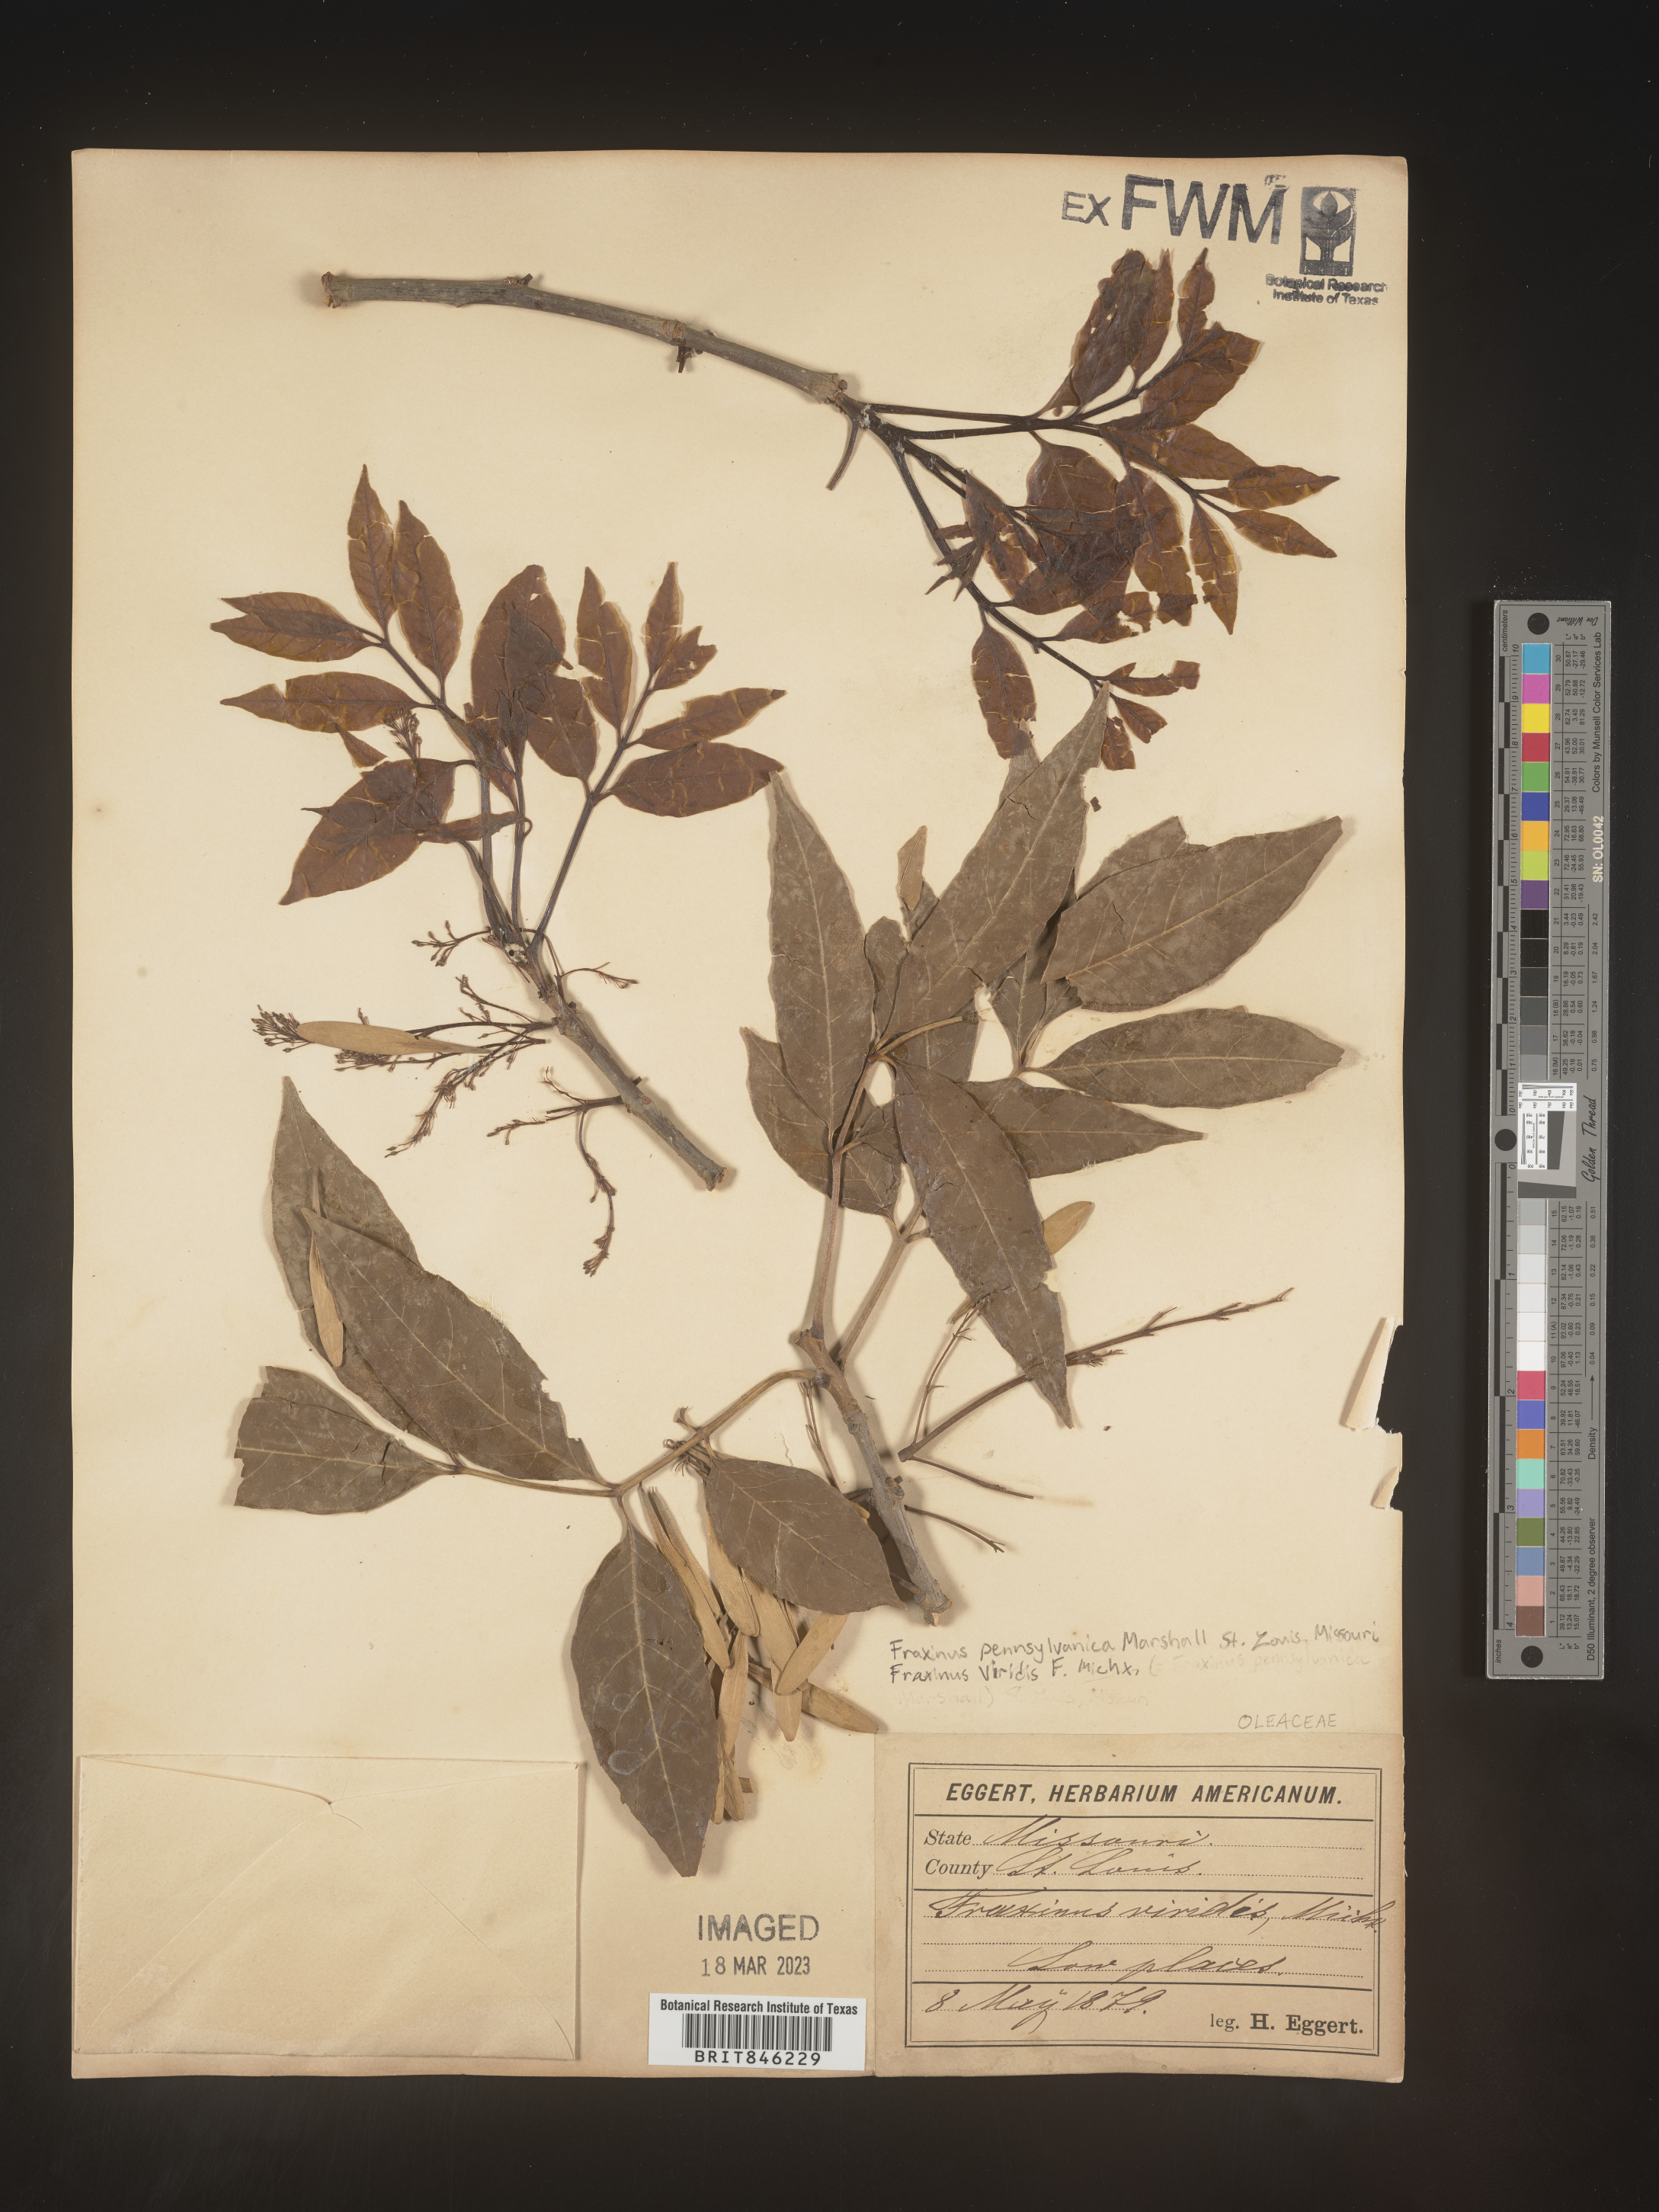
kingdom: Plantae
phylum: Tracheophyta
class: Magnoliopsida
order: Lamiales
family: Oleaceae
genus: Fraxinus
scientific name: Fraxinus pennsylvanica
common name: Green ash
